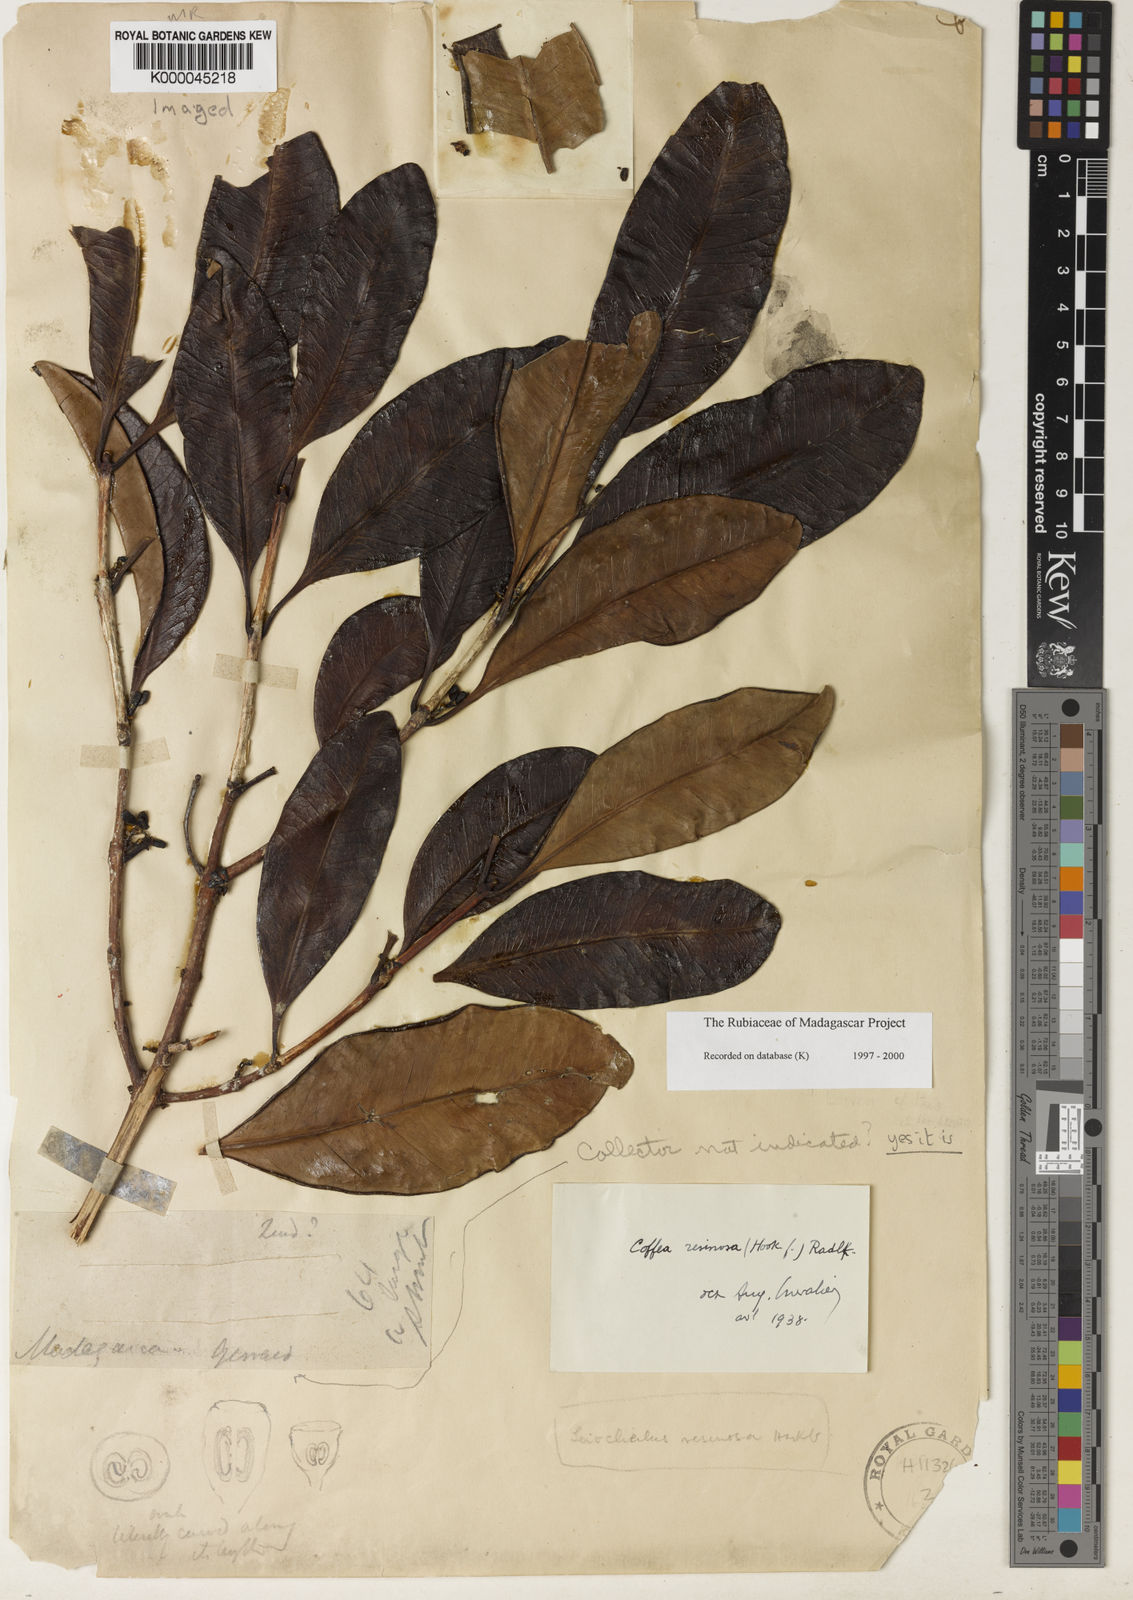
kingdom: Plantae
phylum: Tracheophyta
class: Magnoliopsida
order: Gentianales
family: Rubiaceae
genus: Coffea
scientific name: Coffea resinosa
